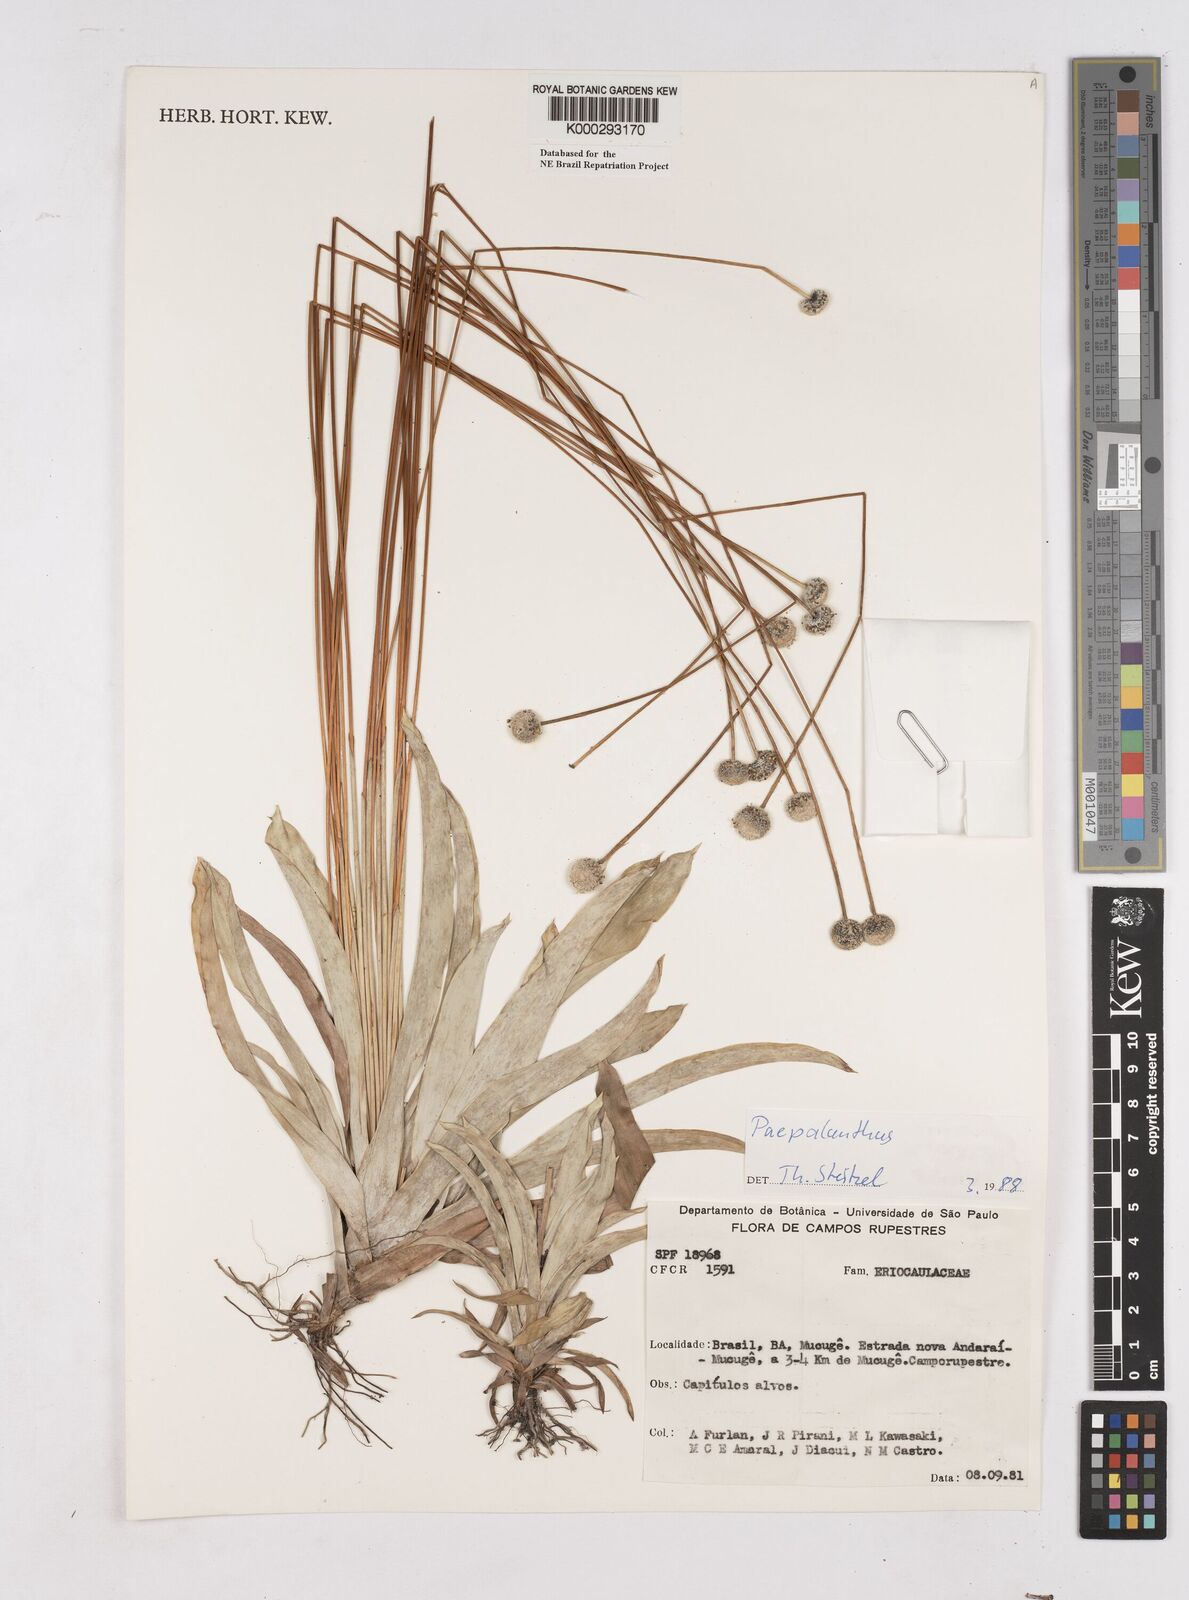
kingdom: Plantae
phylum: Tracheophyta
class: Liliopsida
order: Poales
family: Eriocaulaceae
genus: Paepalanthus
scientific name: Paepalanthus
